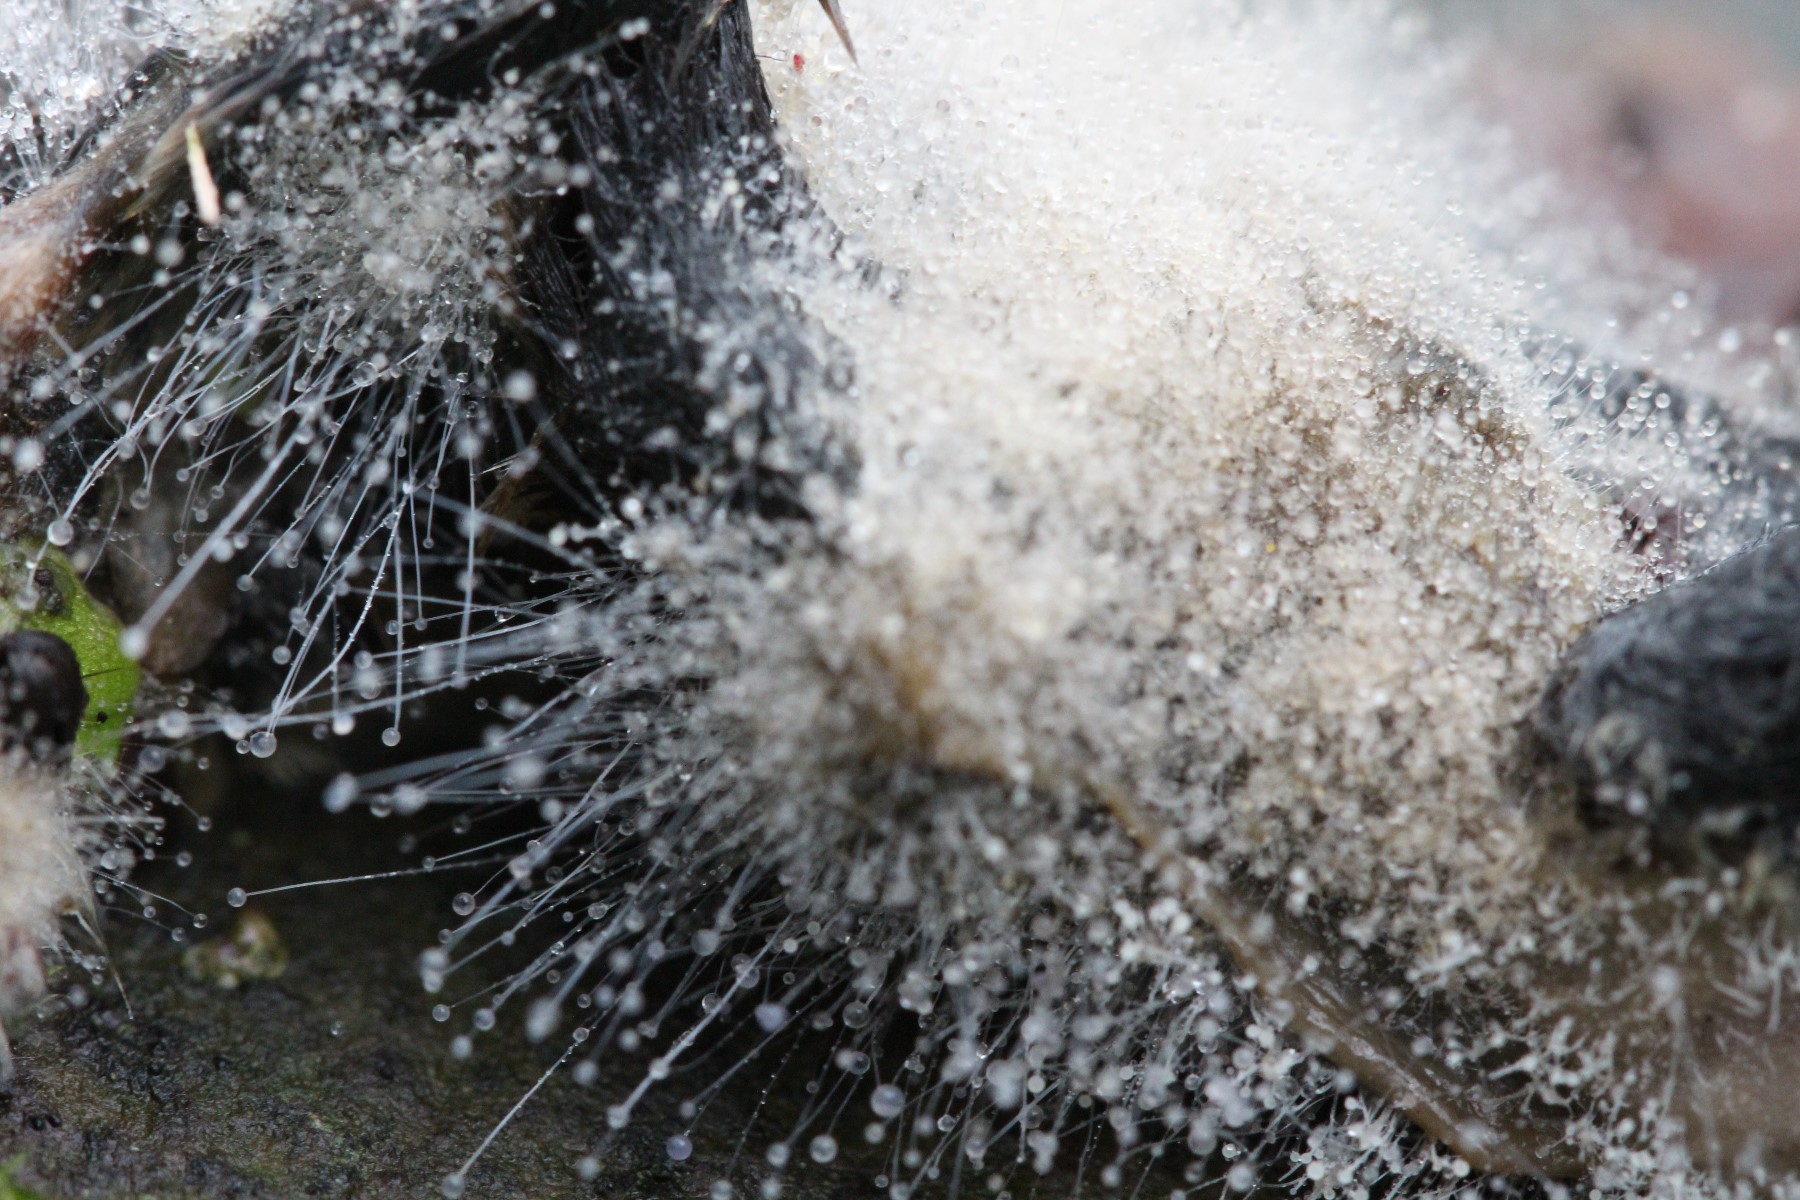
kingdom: Fungi
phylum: Mucoromycota
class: Mucoromycetes
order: Mucorales
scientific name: Mucorales
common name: mugordenen
